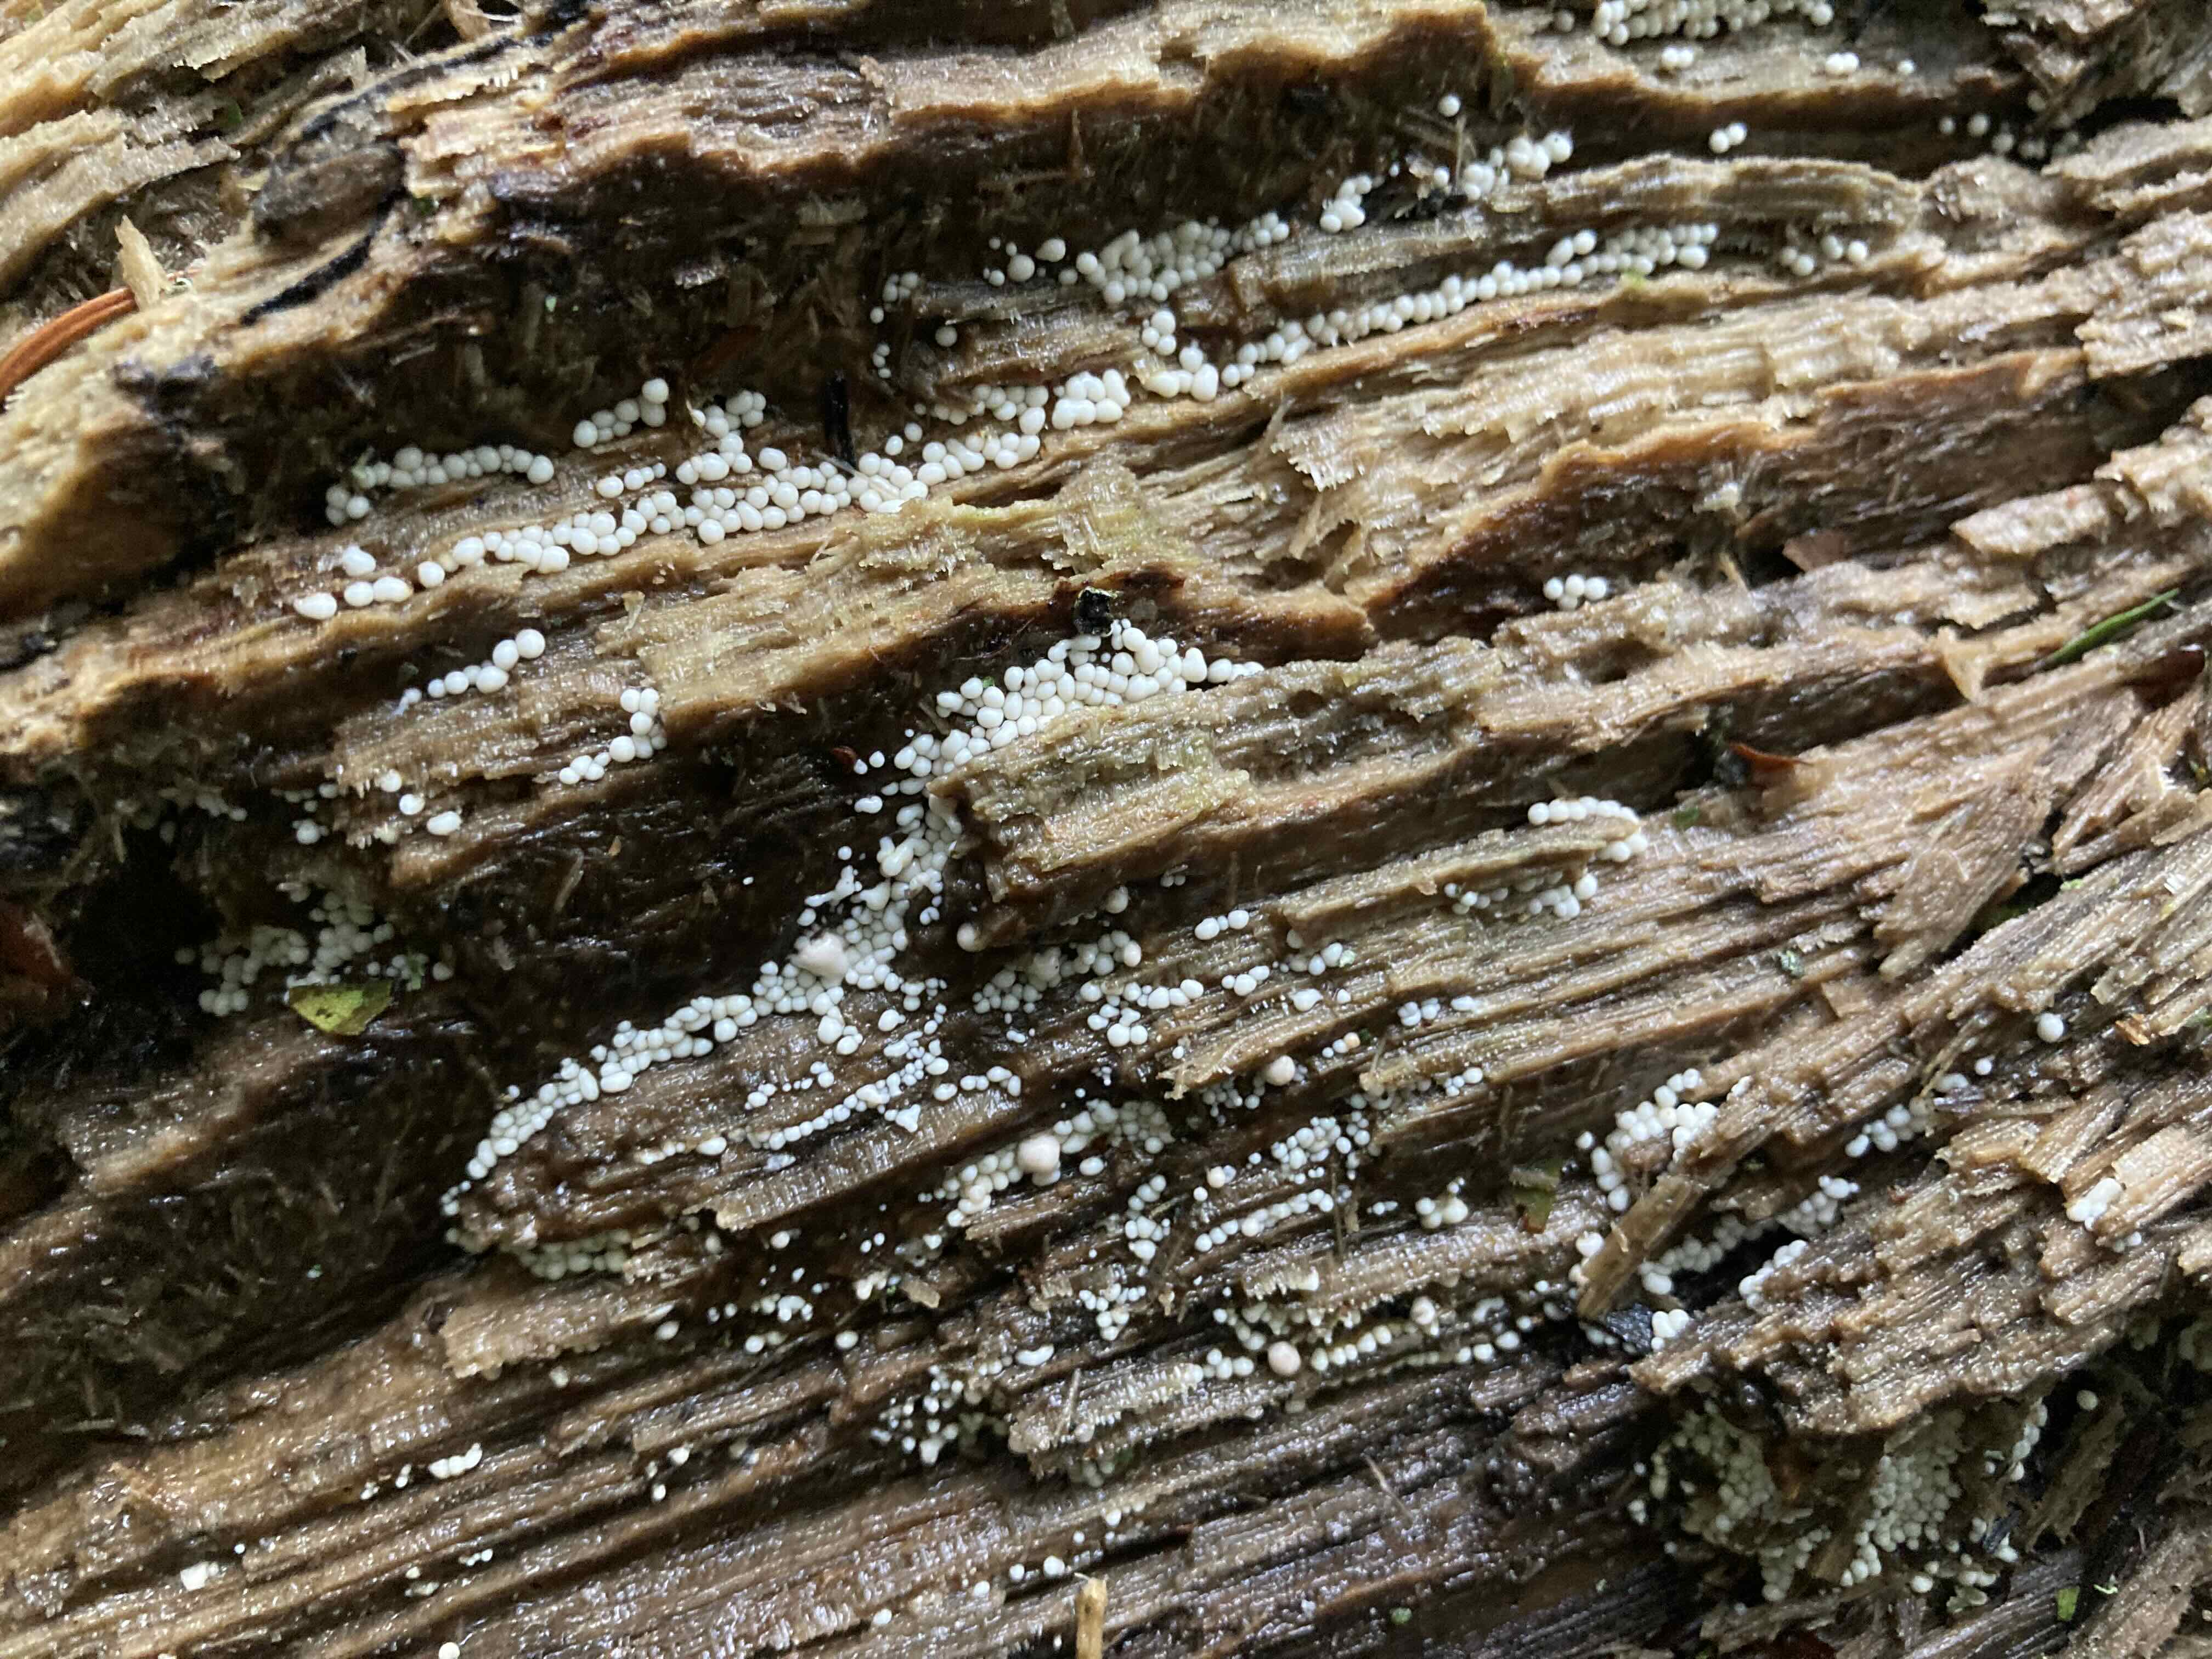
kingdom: Protozoa
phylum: Mycetozoa
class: Myxomycetes
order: Trichiales
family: Trichiaceae
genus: Trichia
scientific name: Trichia
